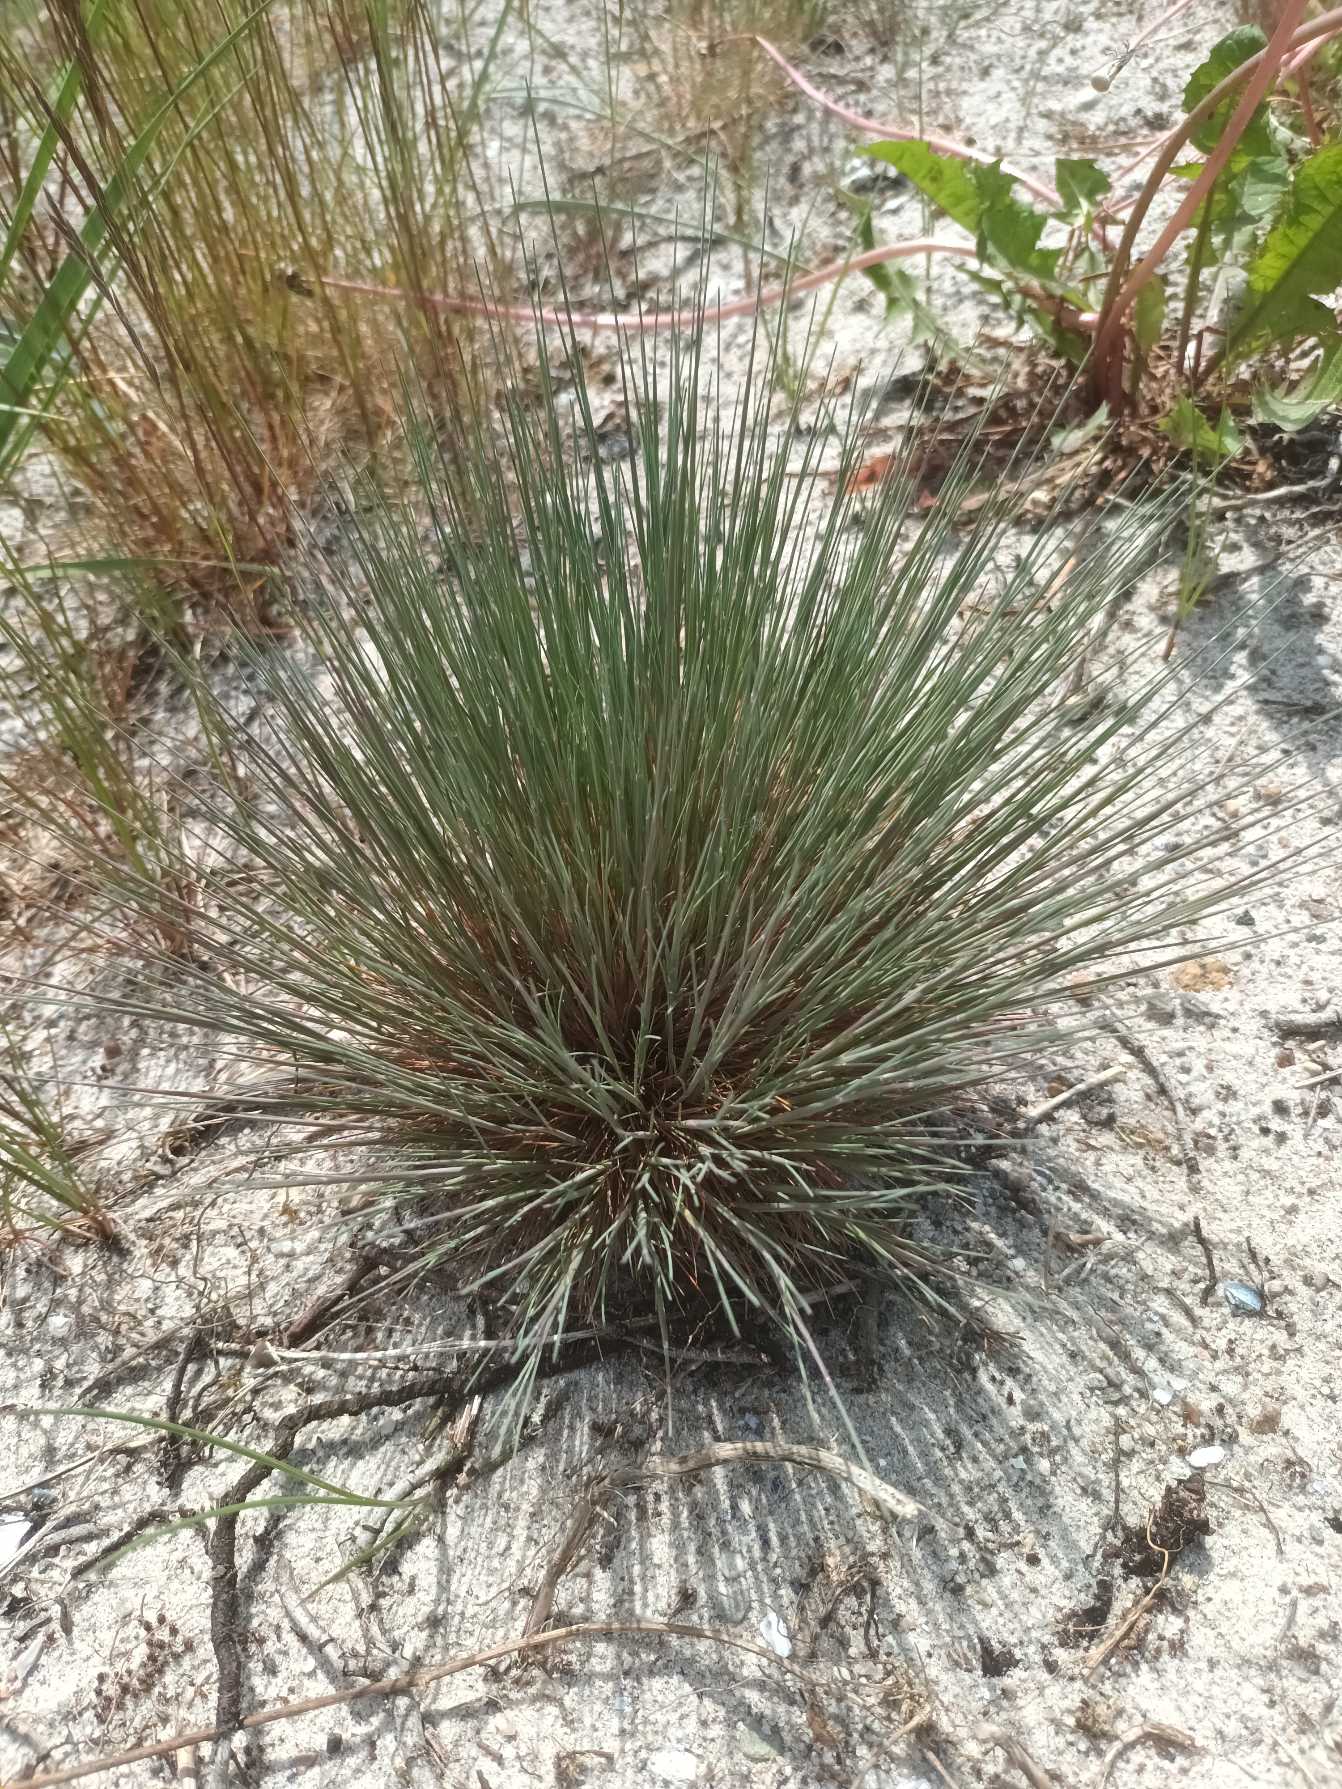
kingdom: Plantae
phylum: Tracheophyta
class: Liliopsida
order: Poales
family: Poaceae
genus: Corynephorus
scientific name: Corynephorus canescens
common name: Sandskæg
